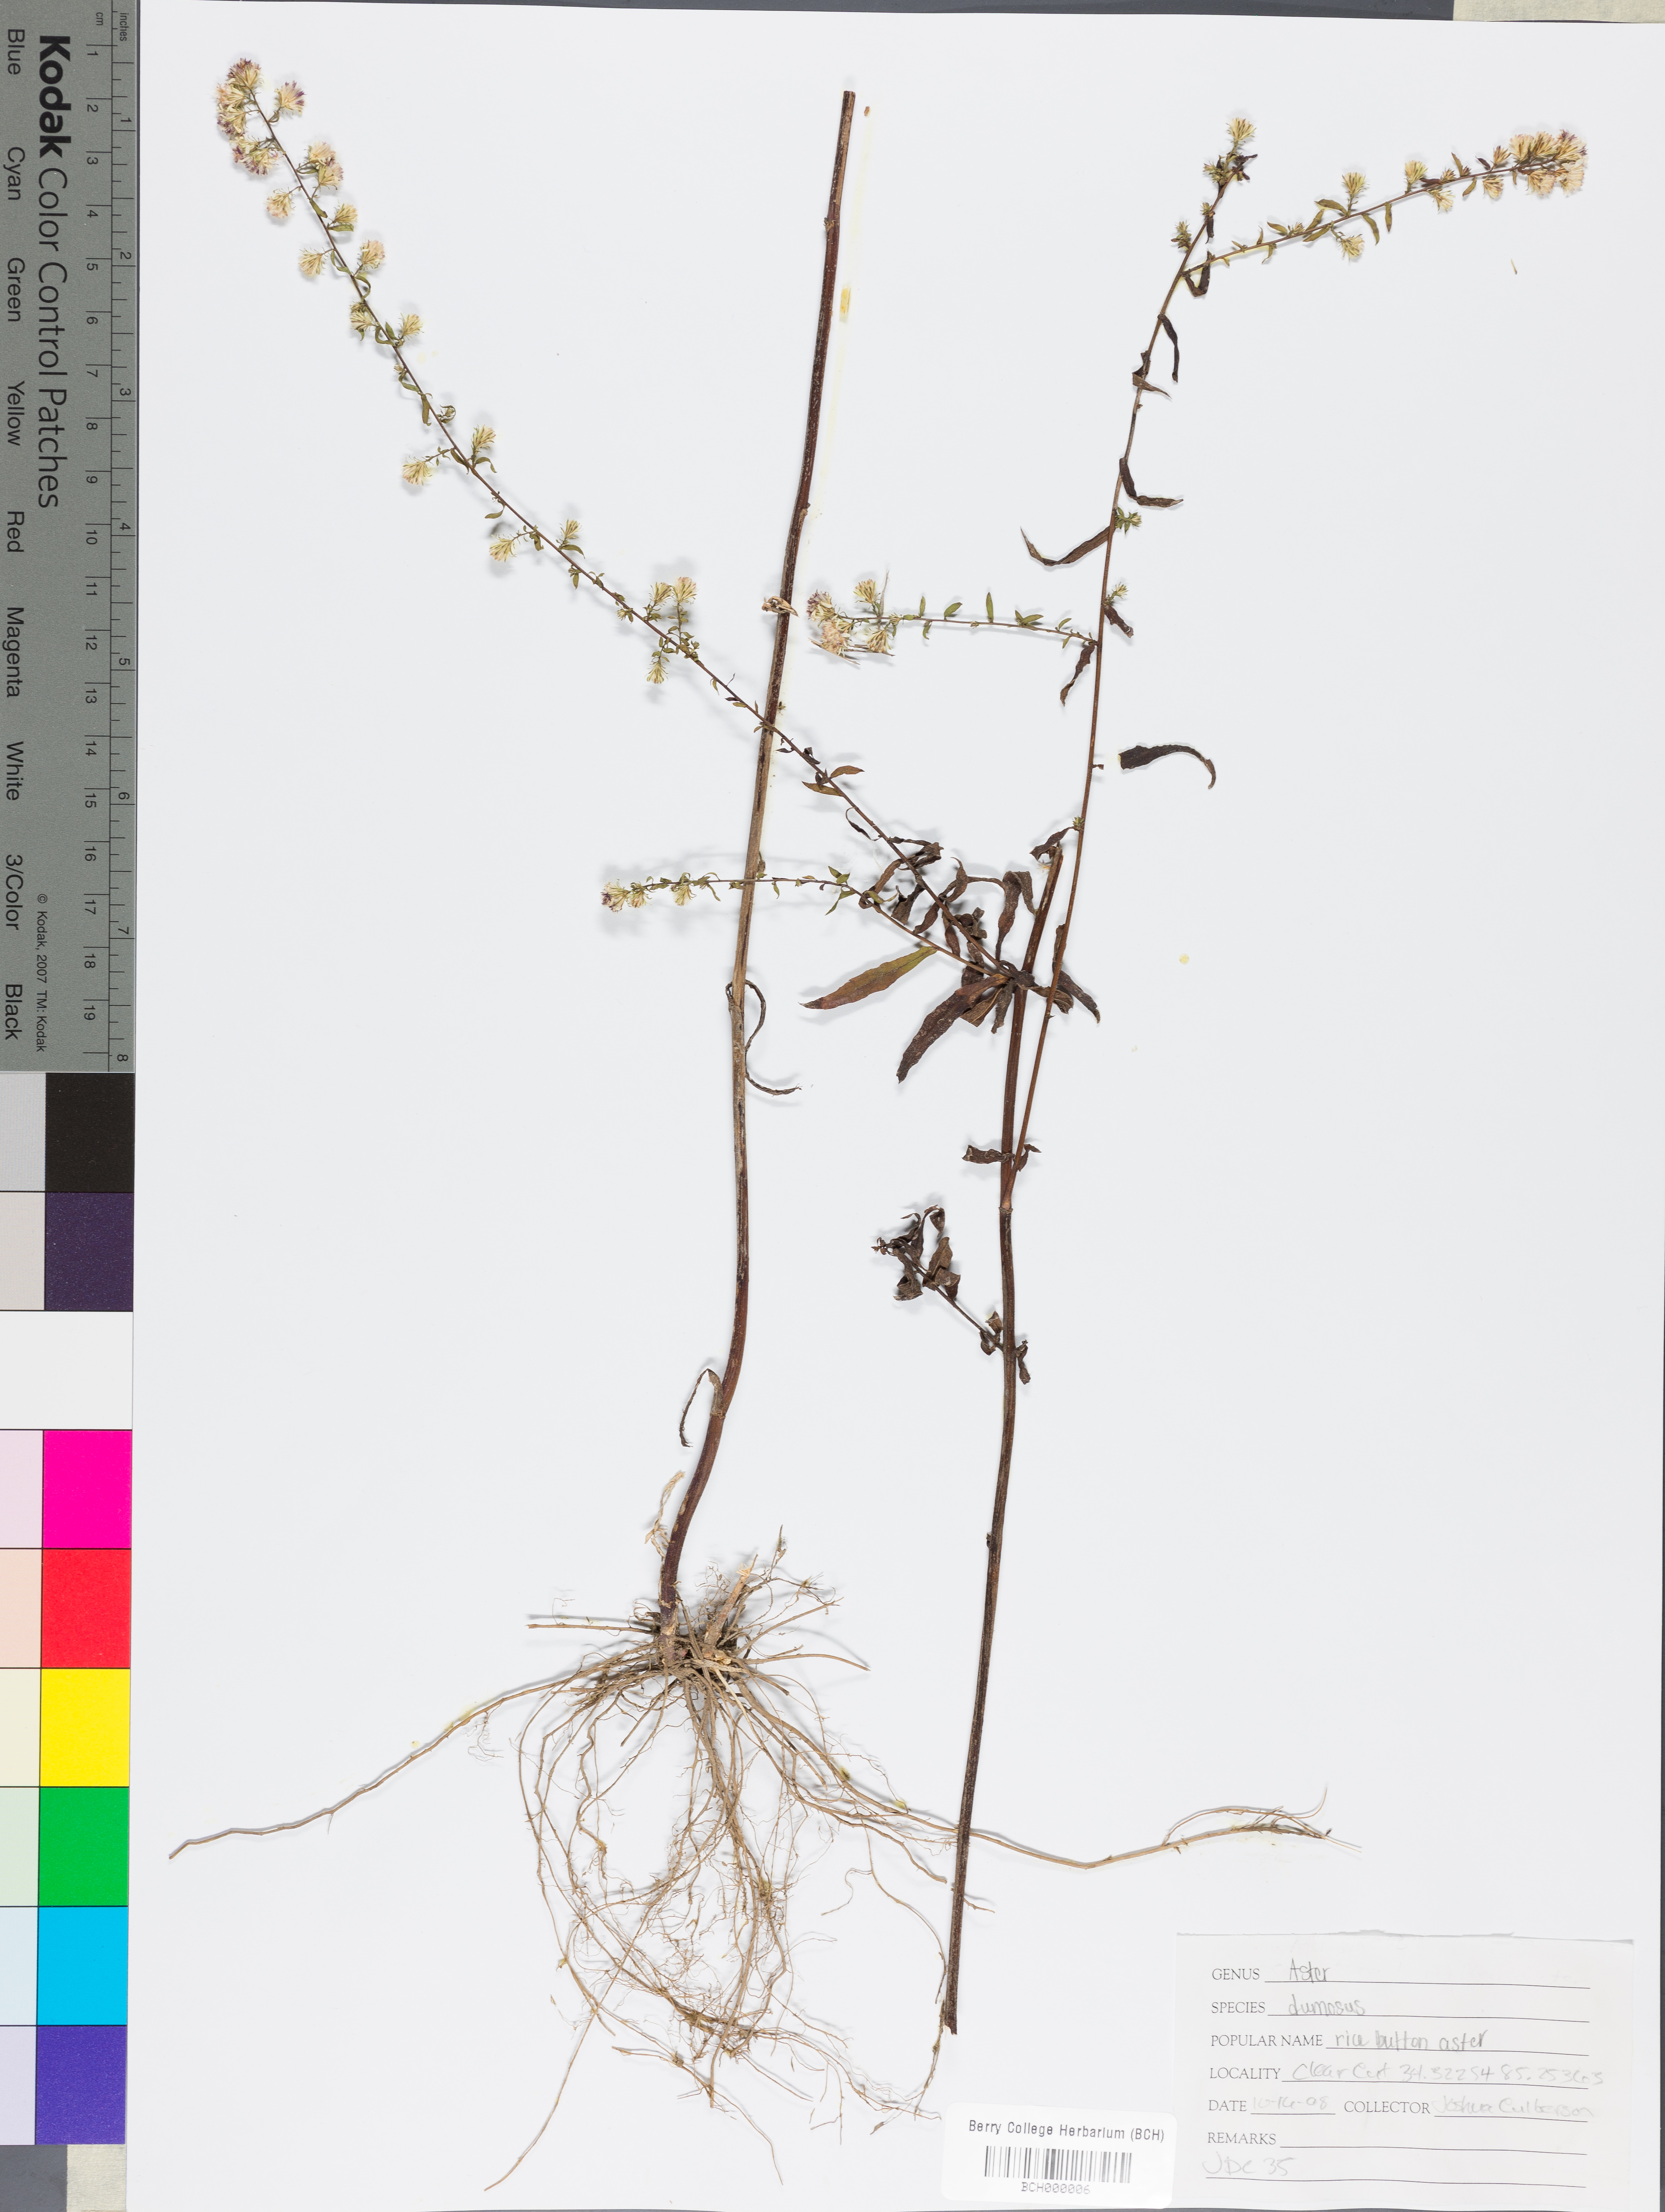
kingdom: Plantae
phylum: Tracheophyta
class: Magnoliopsida
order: Asterales
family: Asteraceae
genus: Symphyotrichum
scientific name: Symphyotrichum dumosum
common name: Bushy aster
